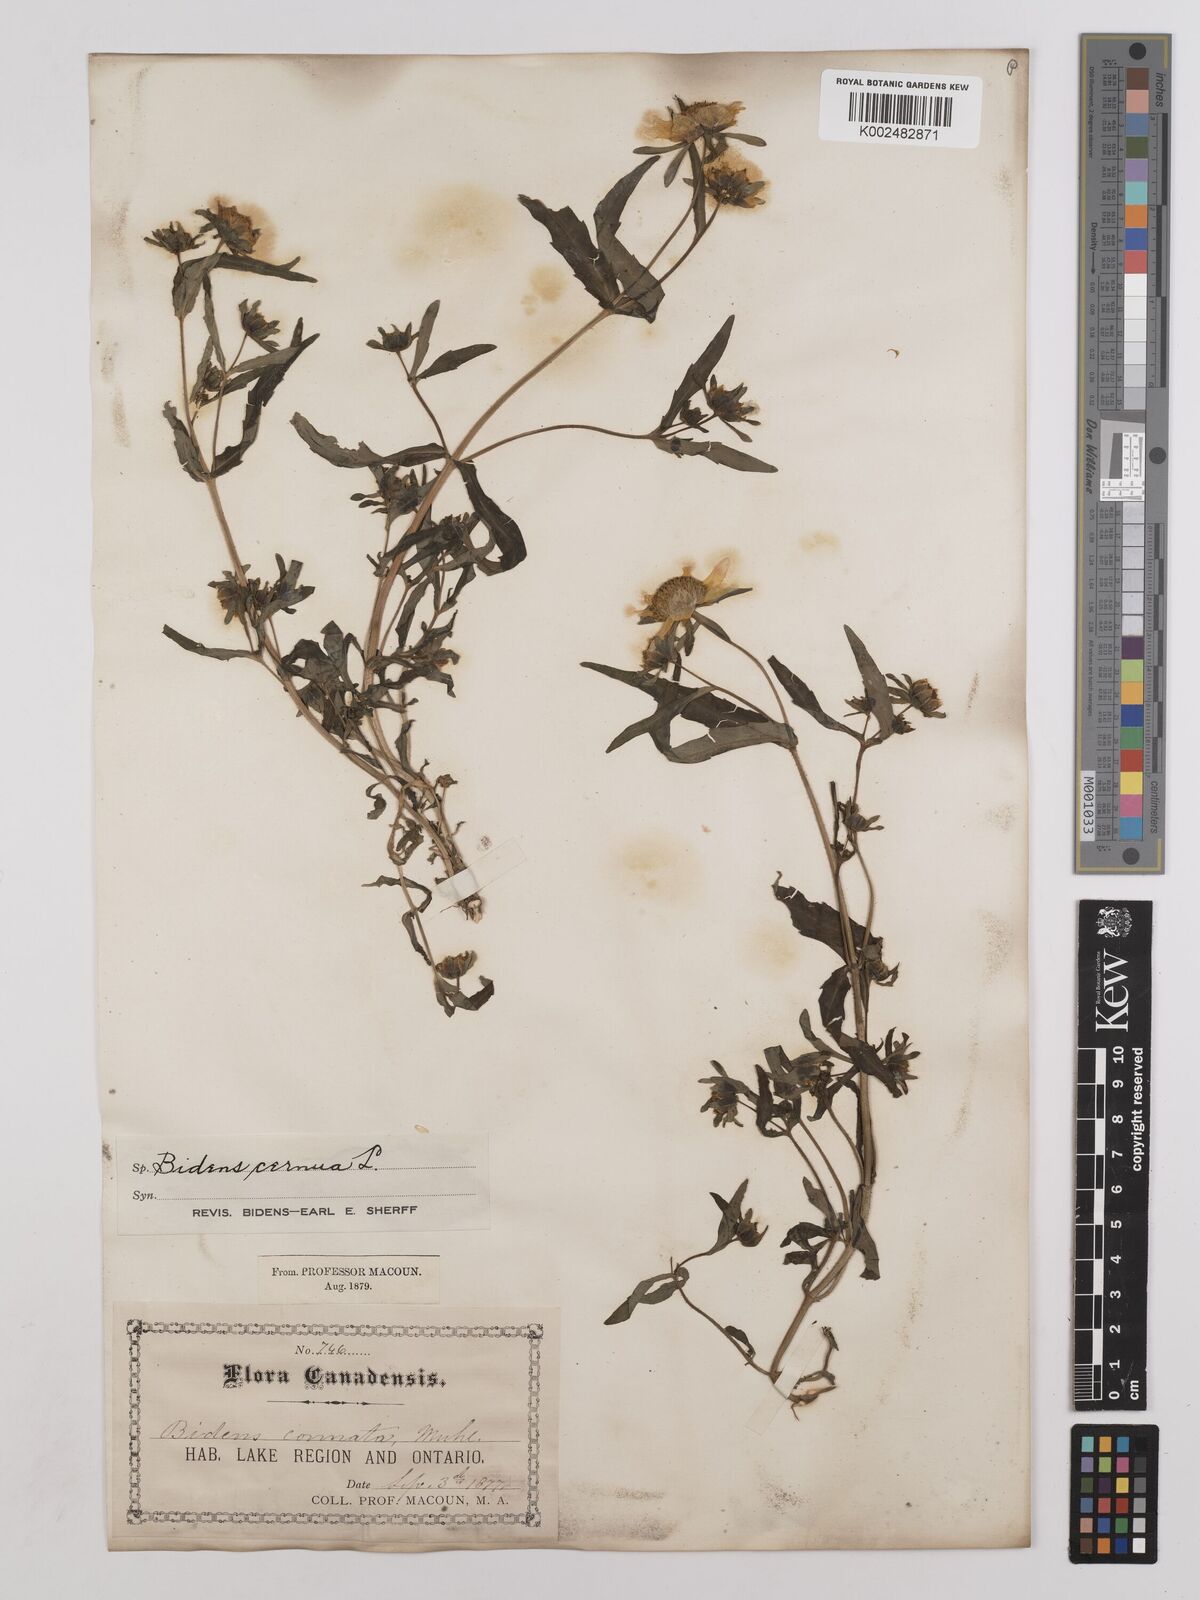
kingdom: Plantae
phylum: Tracheophyta
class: Magnoliopsida
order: Asterales
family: Asteraceae
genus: Bidens
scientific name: Bidens
